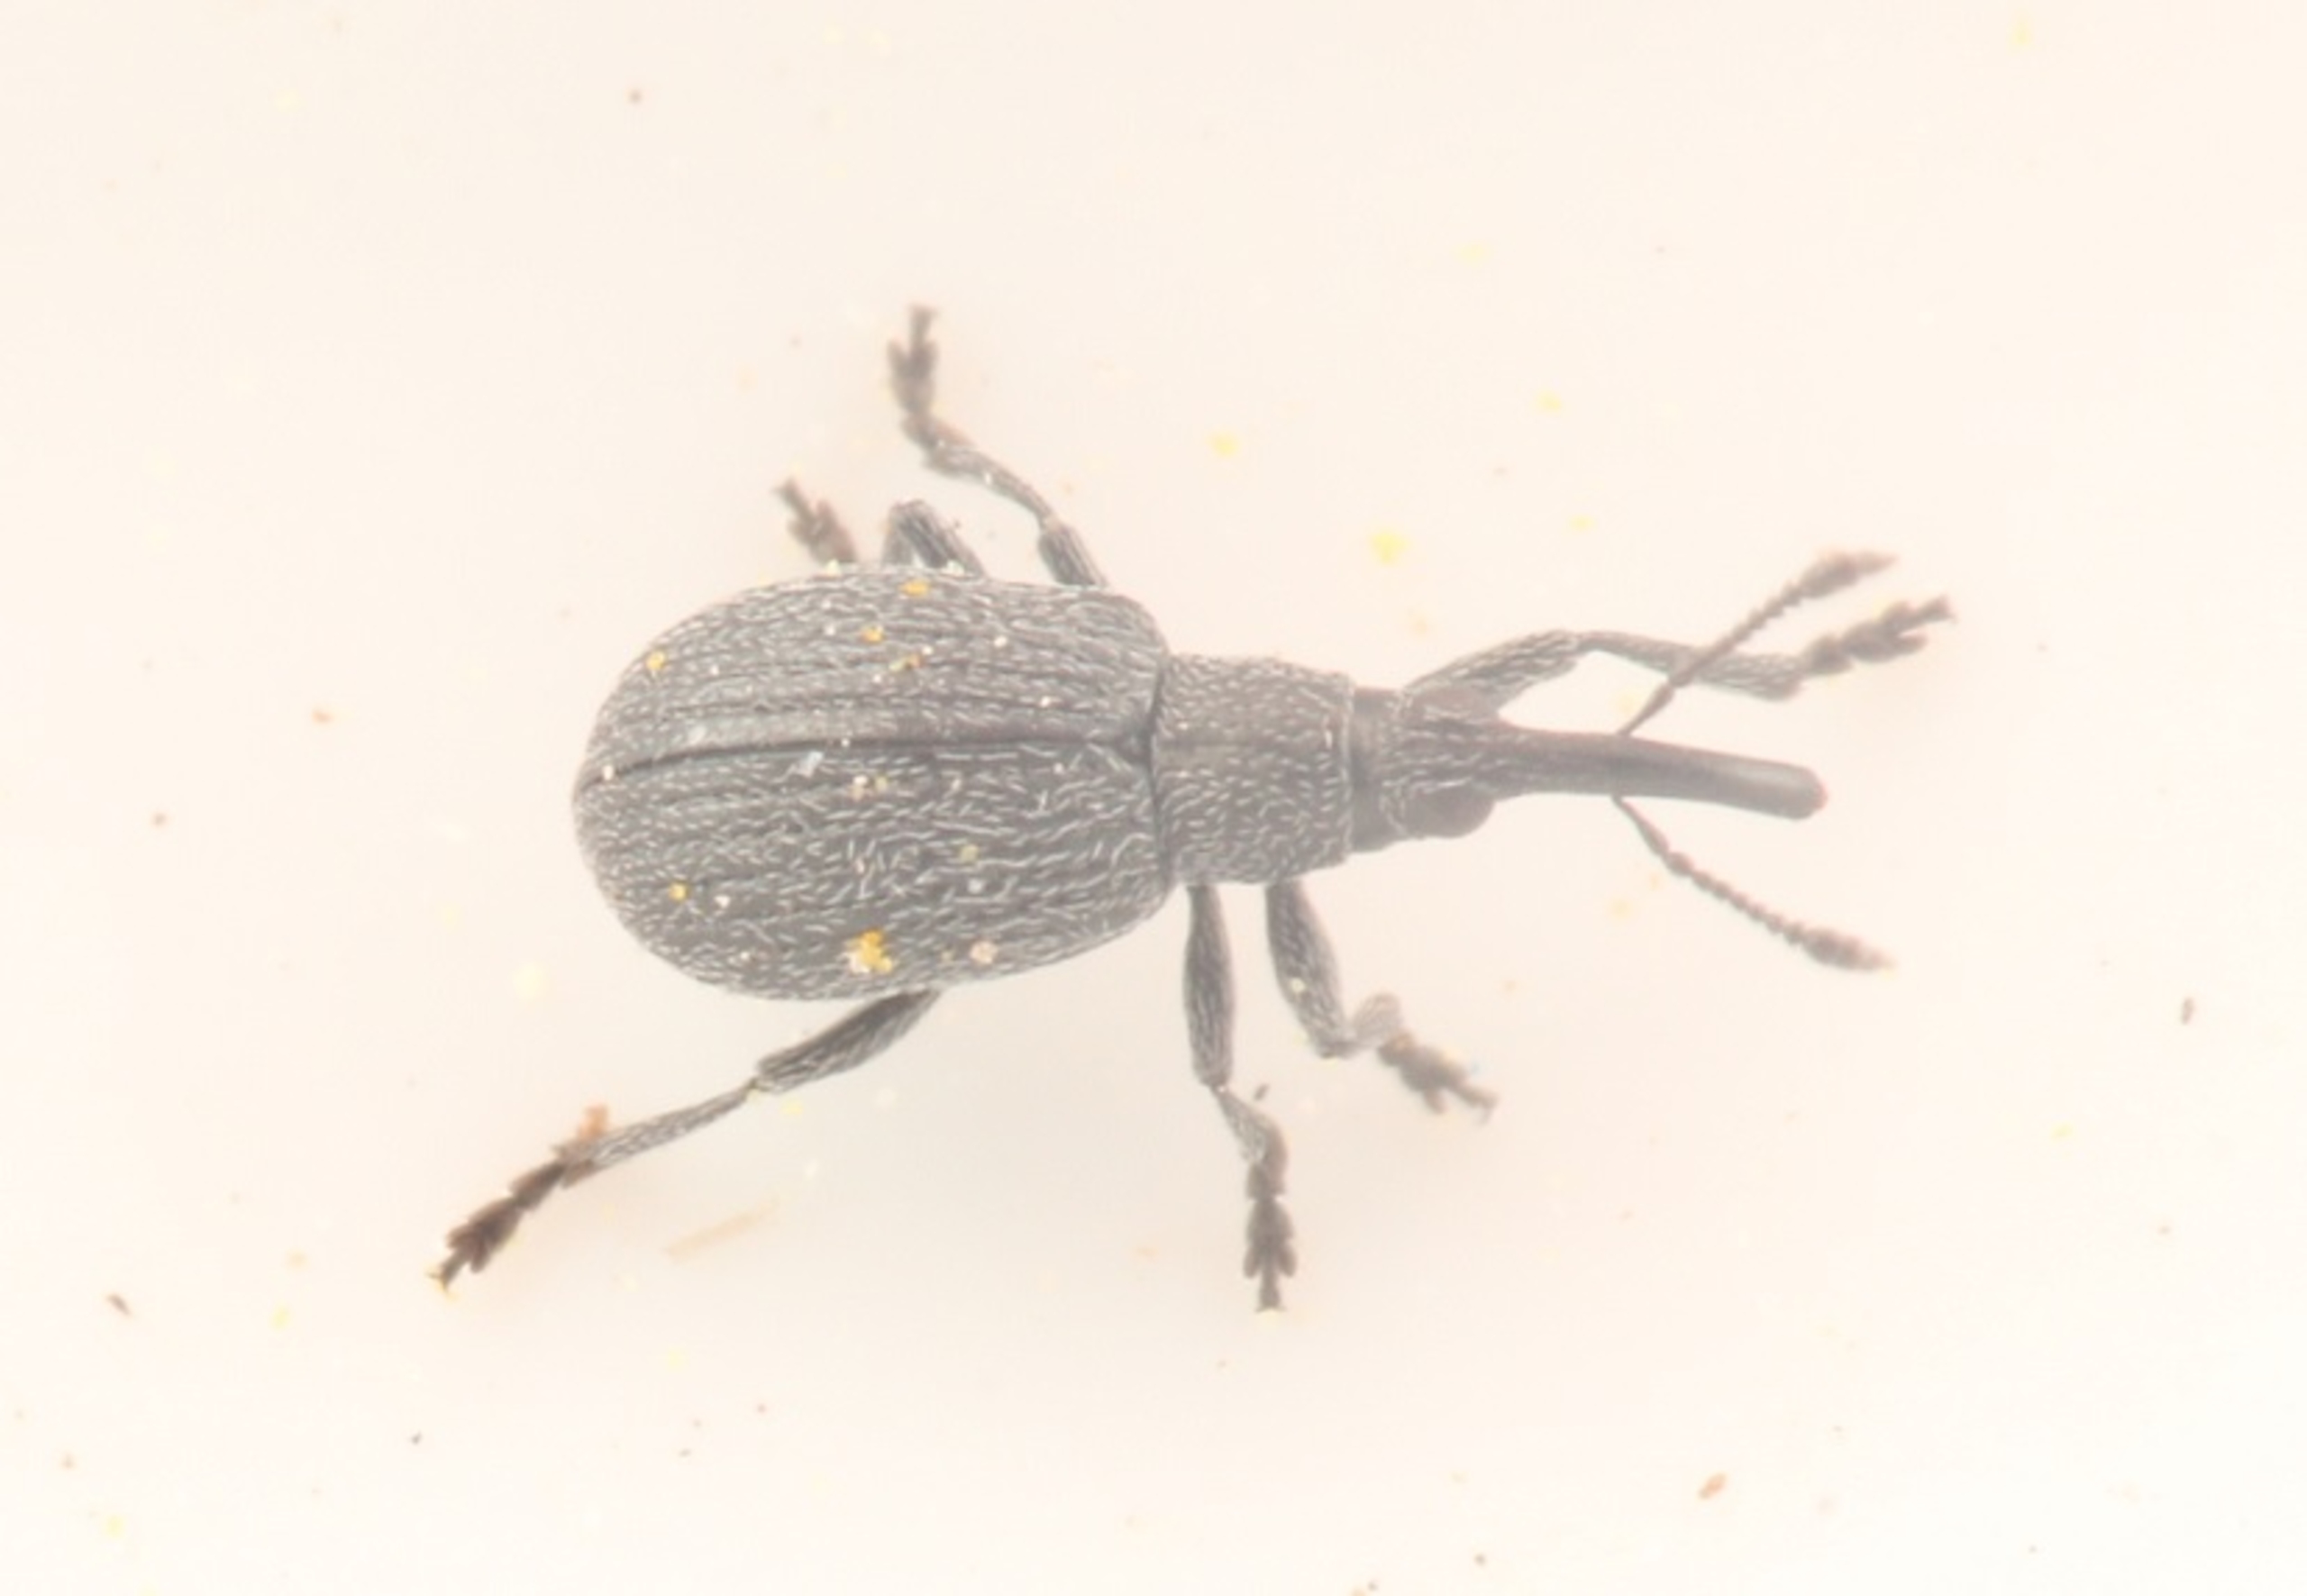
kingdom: Animalia
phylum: Arthropoda
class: Insecta
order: Coleoptera
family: Apionidae
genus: Ischnopterapion
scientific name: Ischnopterapion loti
